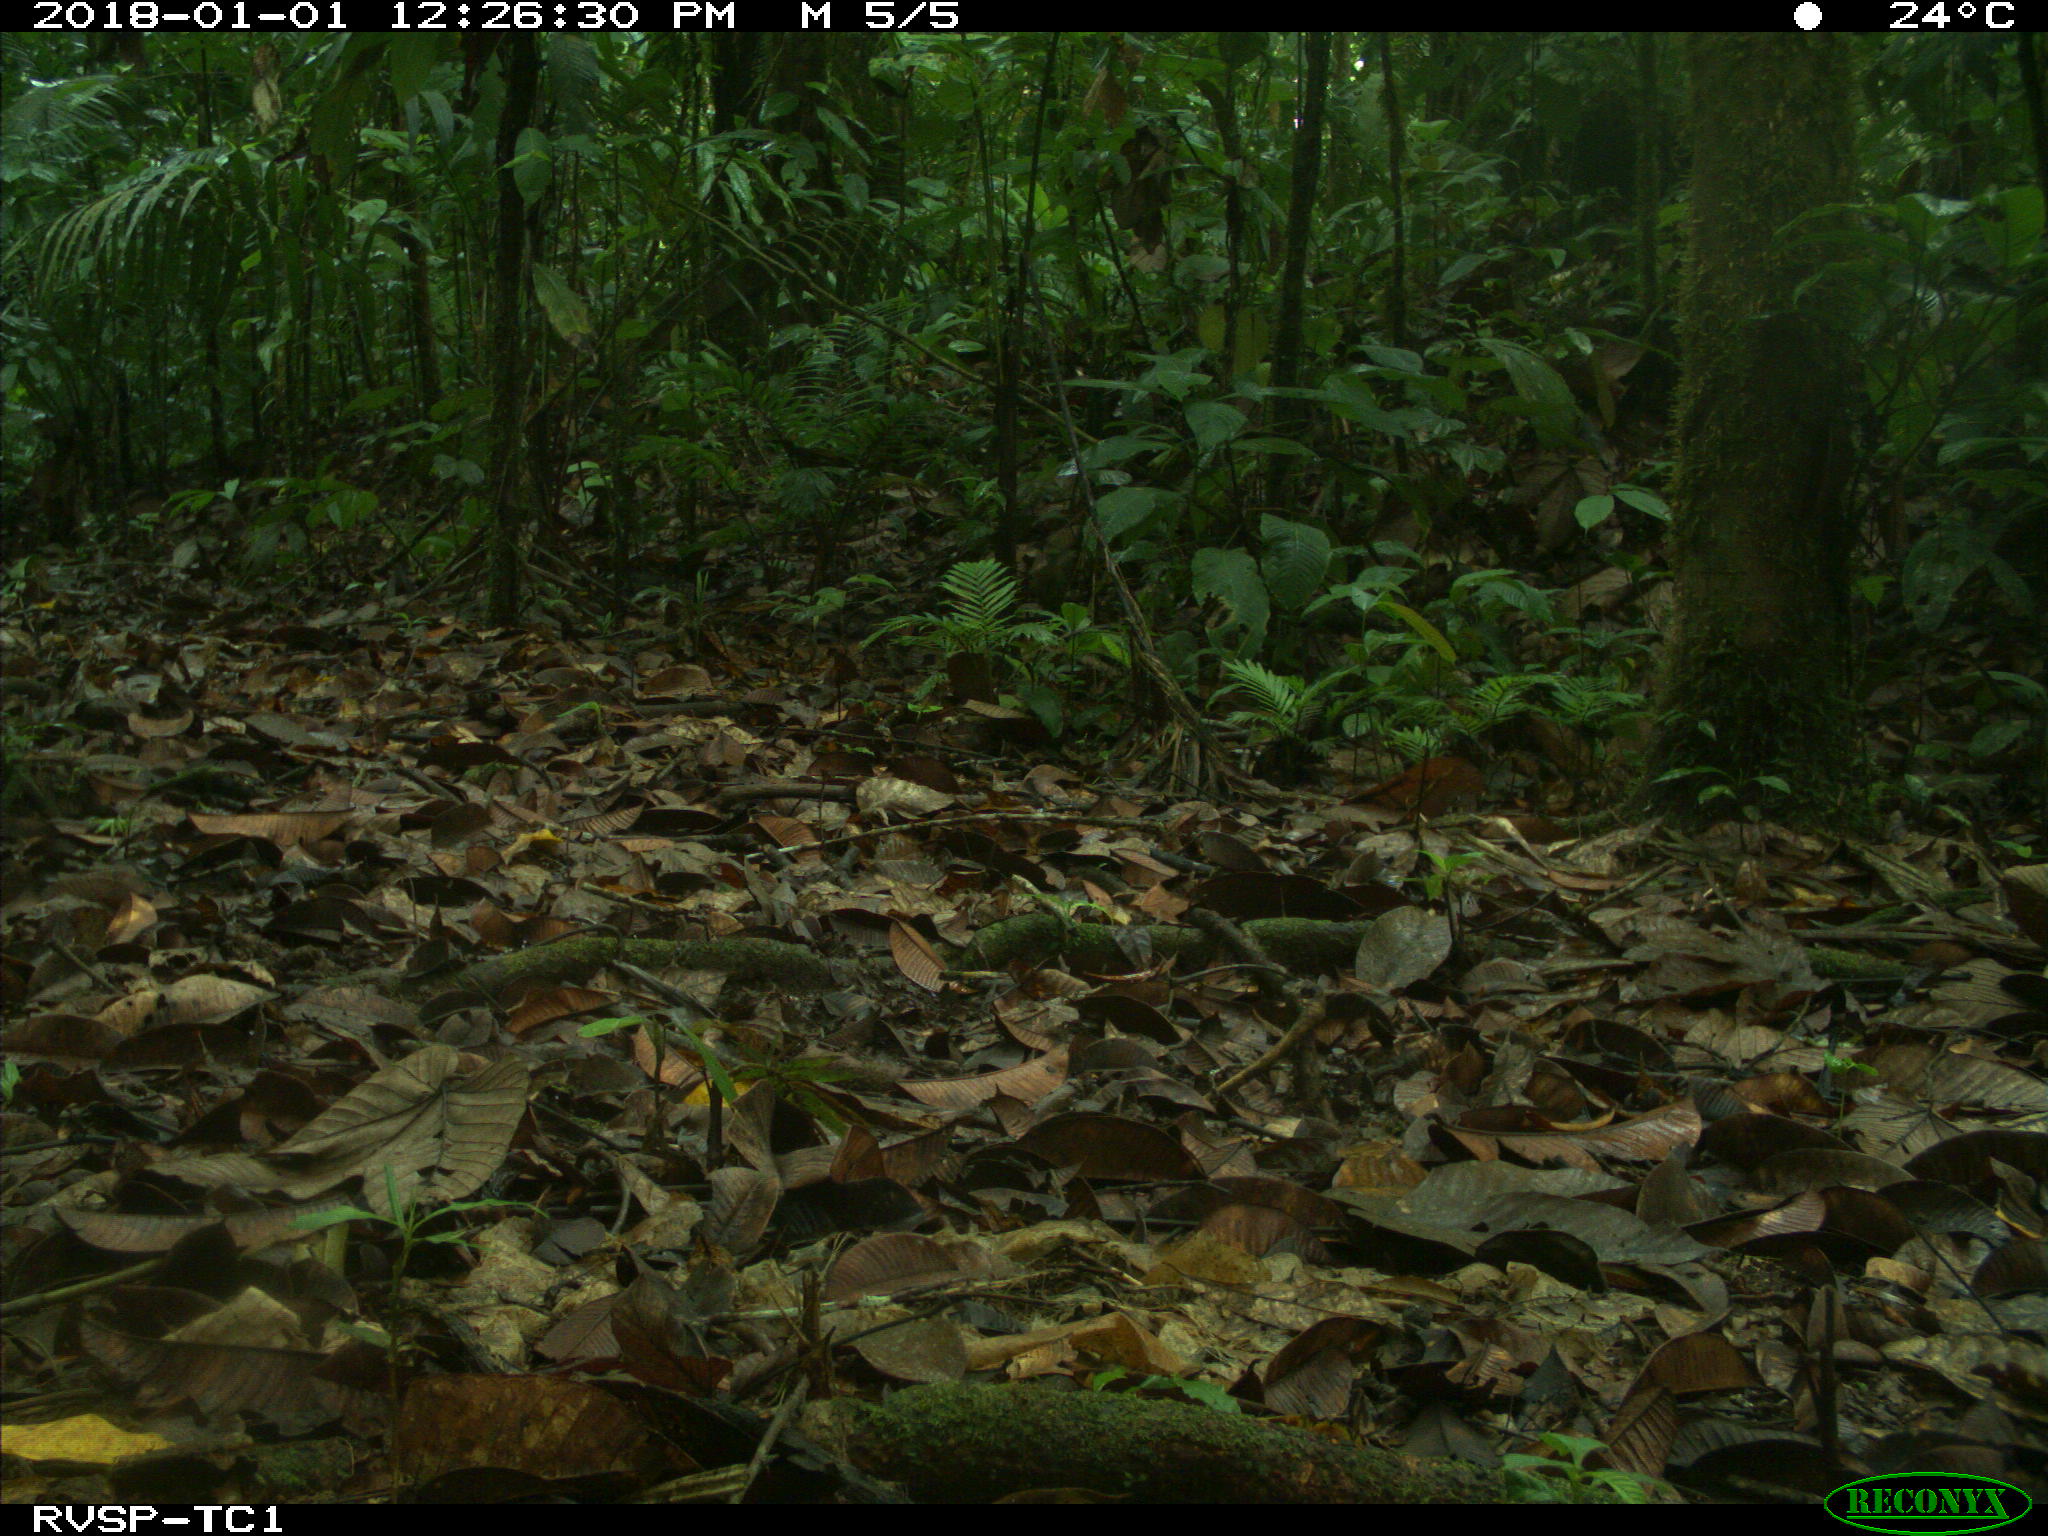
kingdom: Animalia
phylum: Chordata
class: Mammalia
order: Rodentia
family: Dasyproctidae
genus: Dasyprocta
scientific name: Dasyprocta punctata
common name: Central american agouti
